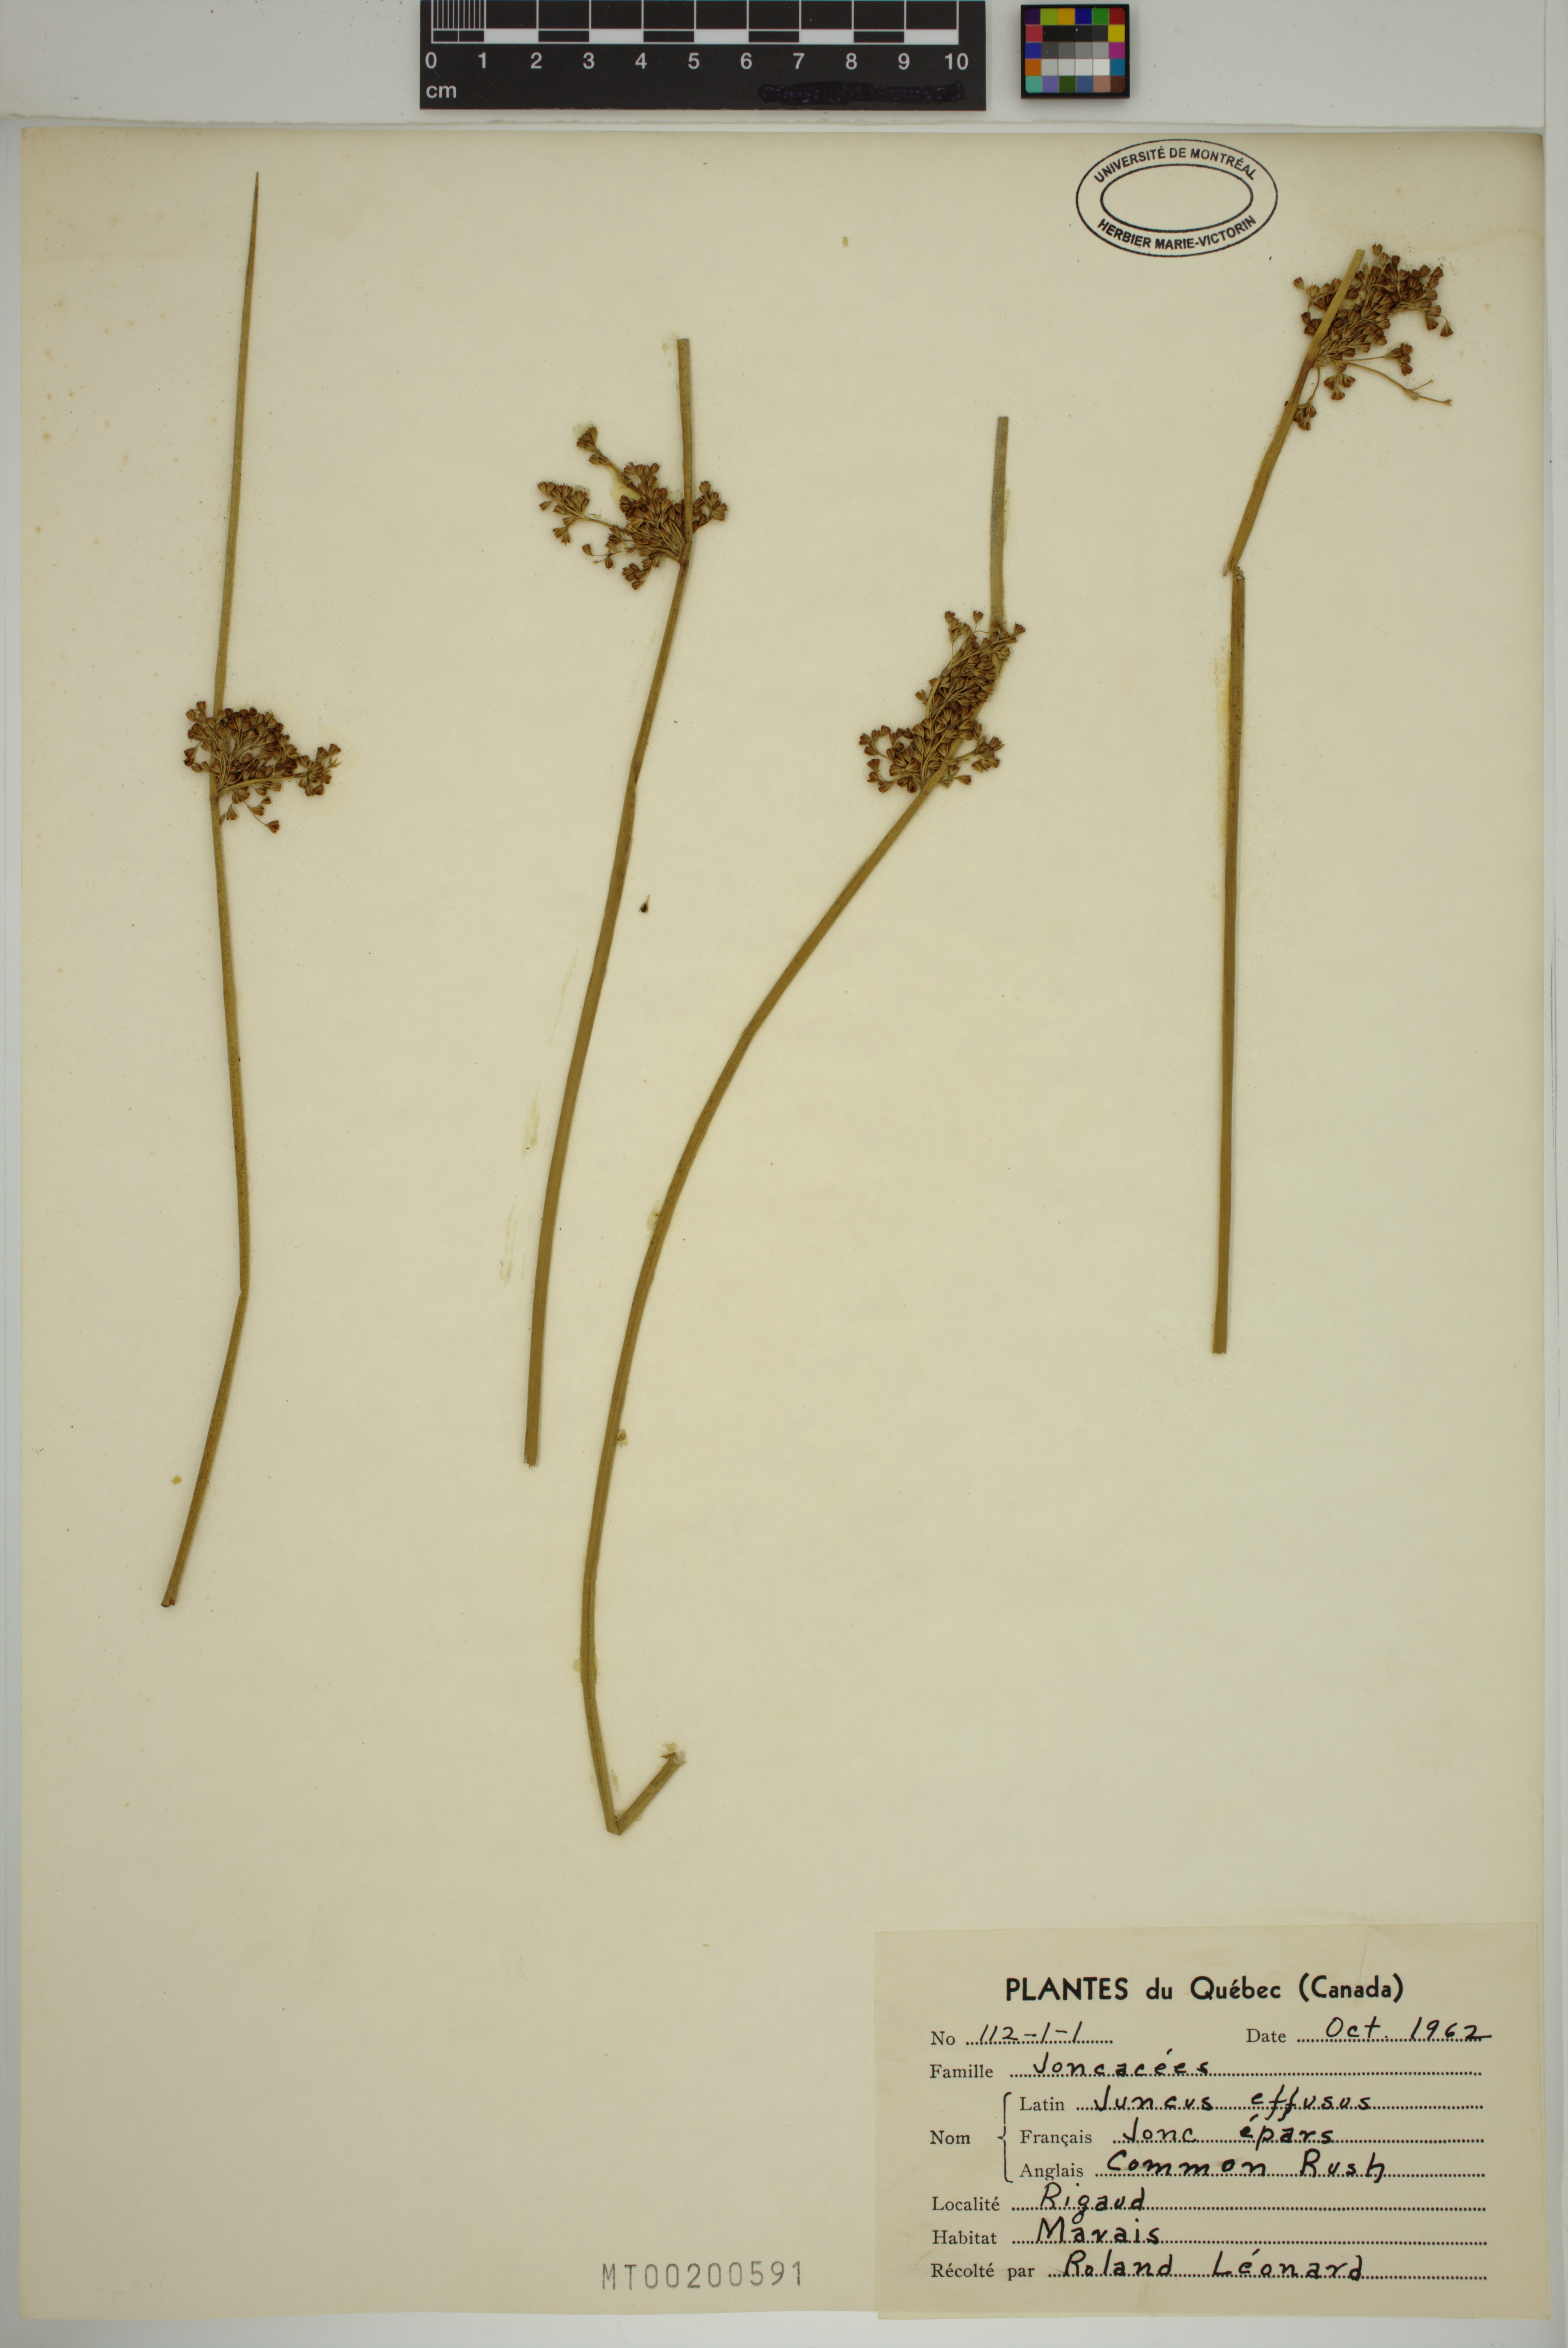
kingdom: Plantae
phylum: Tracheophyta
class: Liliopsida
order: Poales
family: Juncaceae
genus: Juncus
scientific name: Juncus effusus
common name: Soft rush
